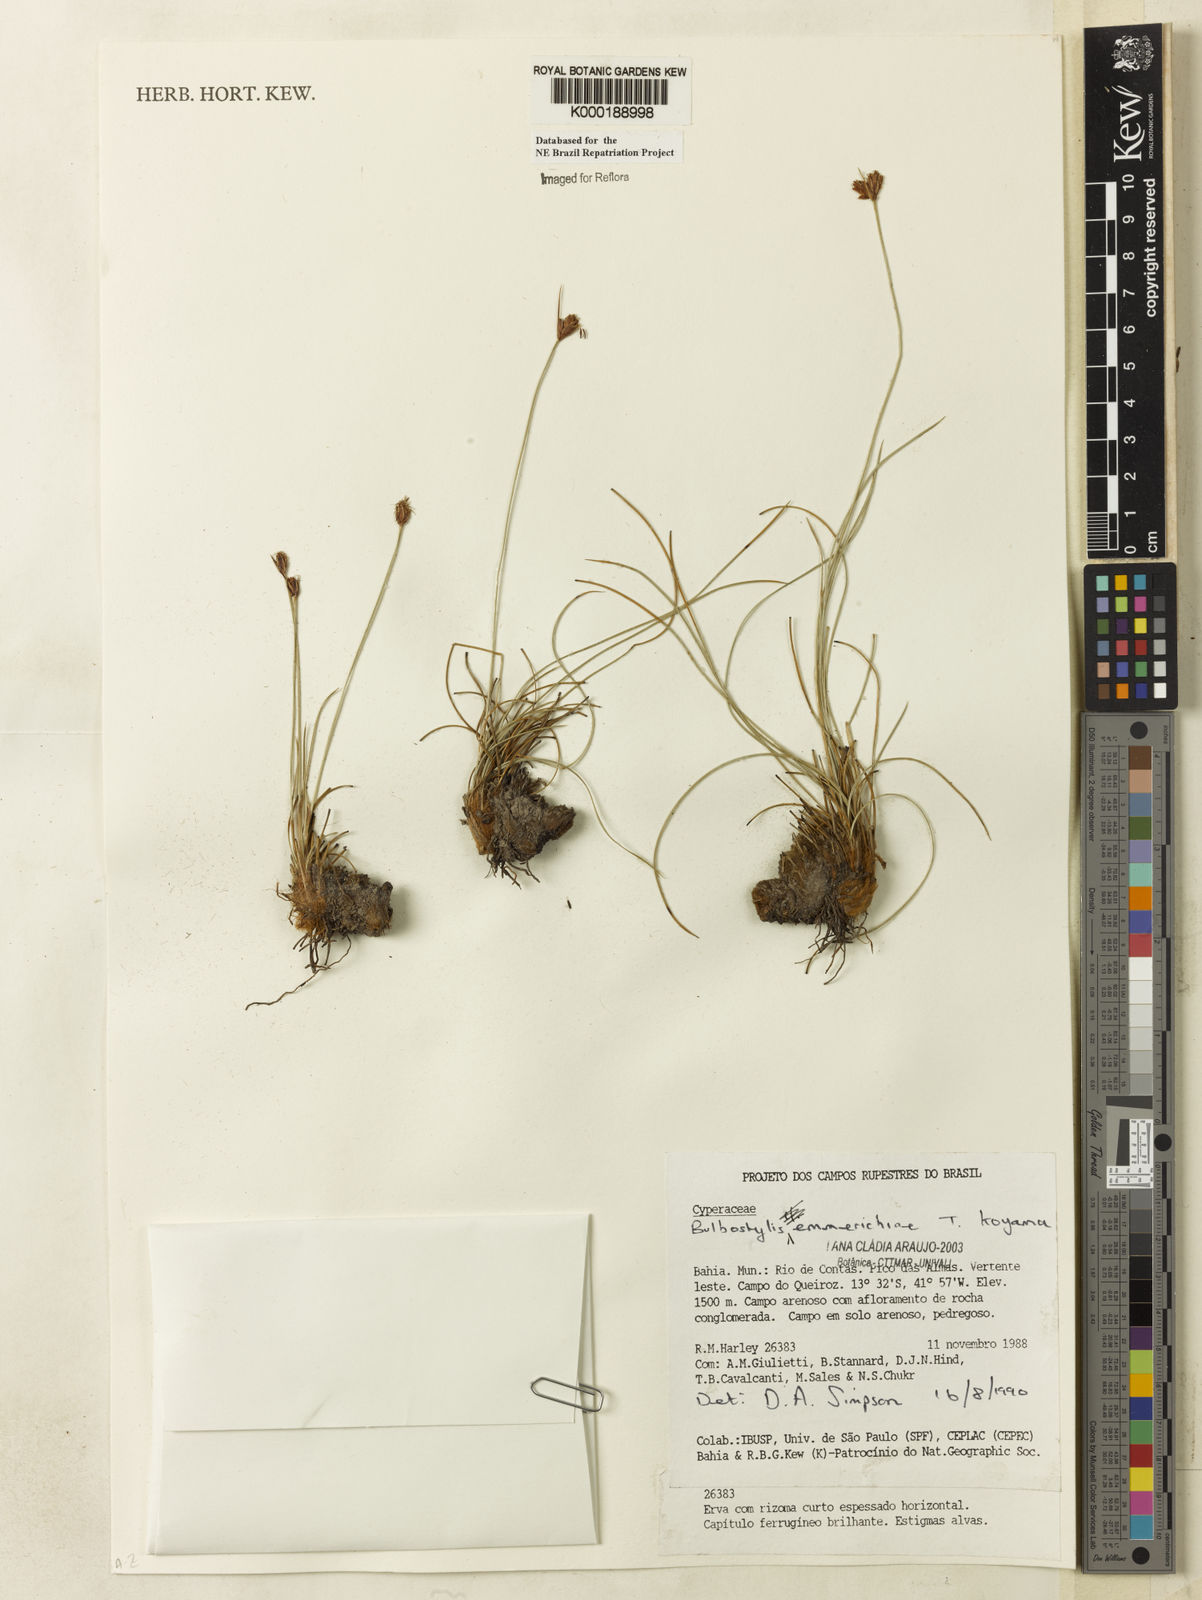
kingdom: Plantae
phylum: Tracheophyta
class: Liliopsida
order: Poales
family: Cyperaceae
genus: Bulbostylis
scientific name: Bulbostylis emmerichiae
